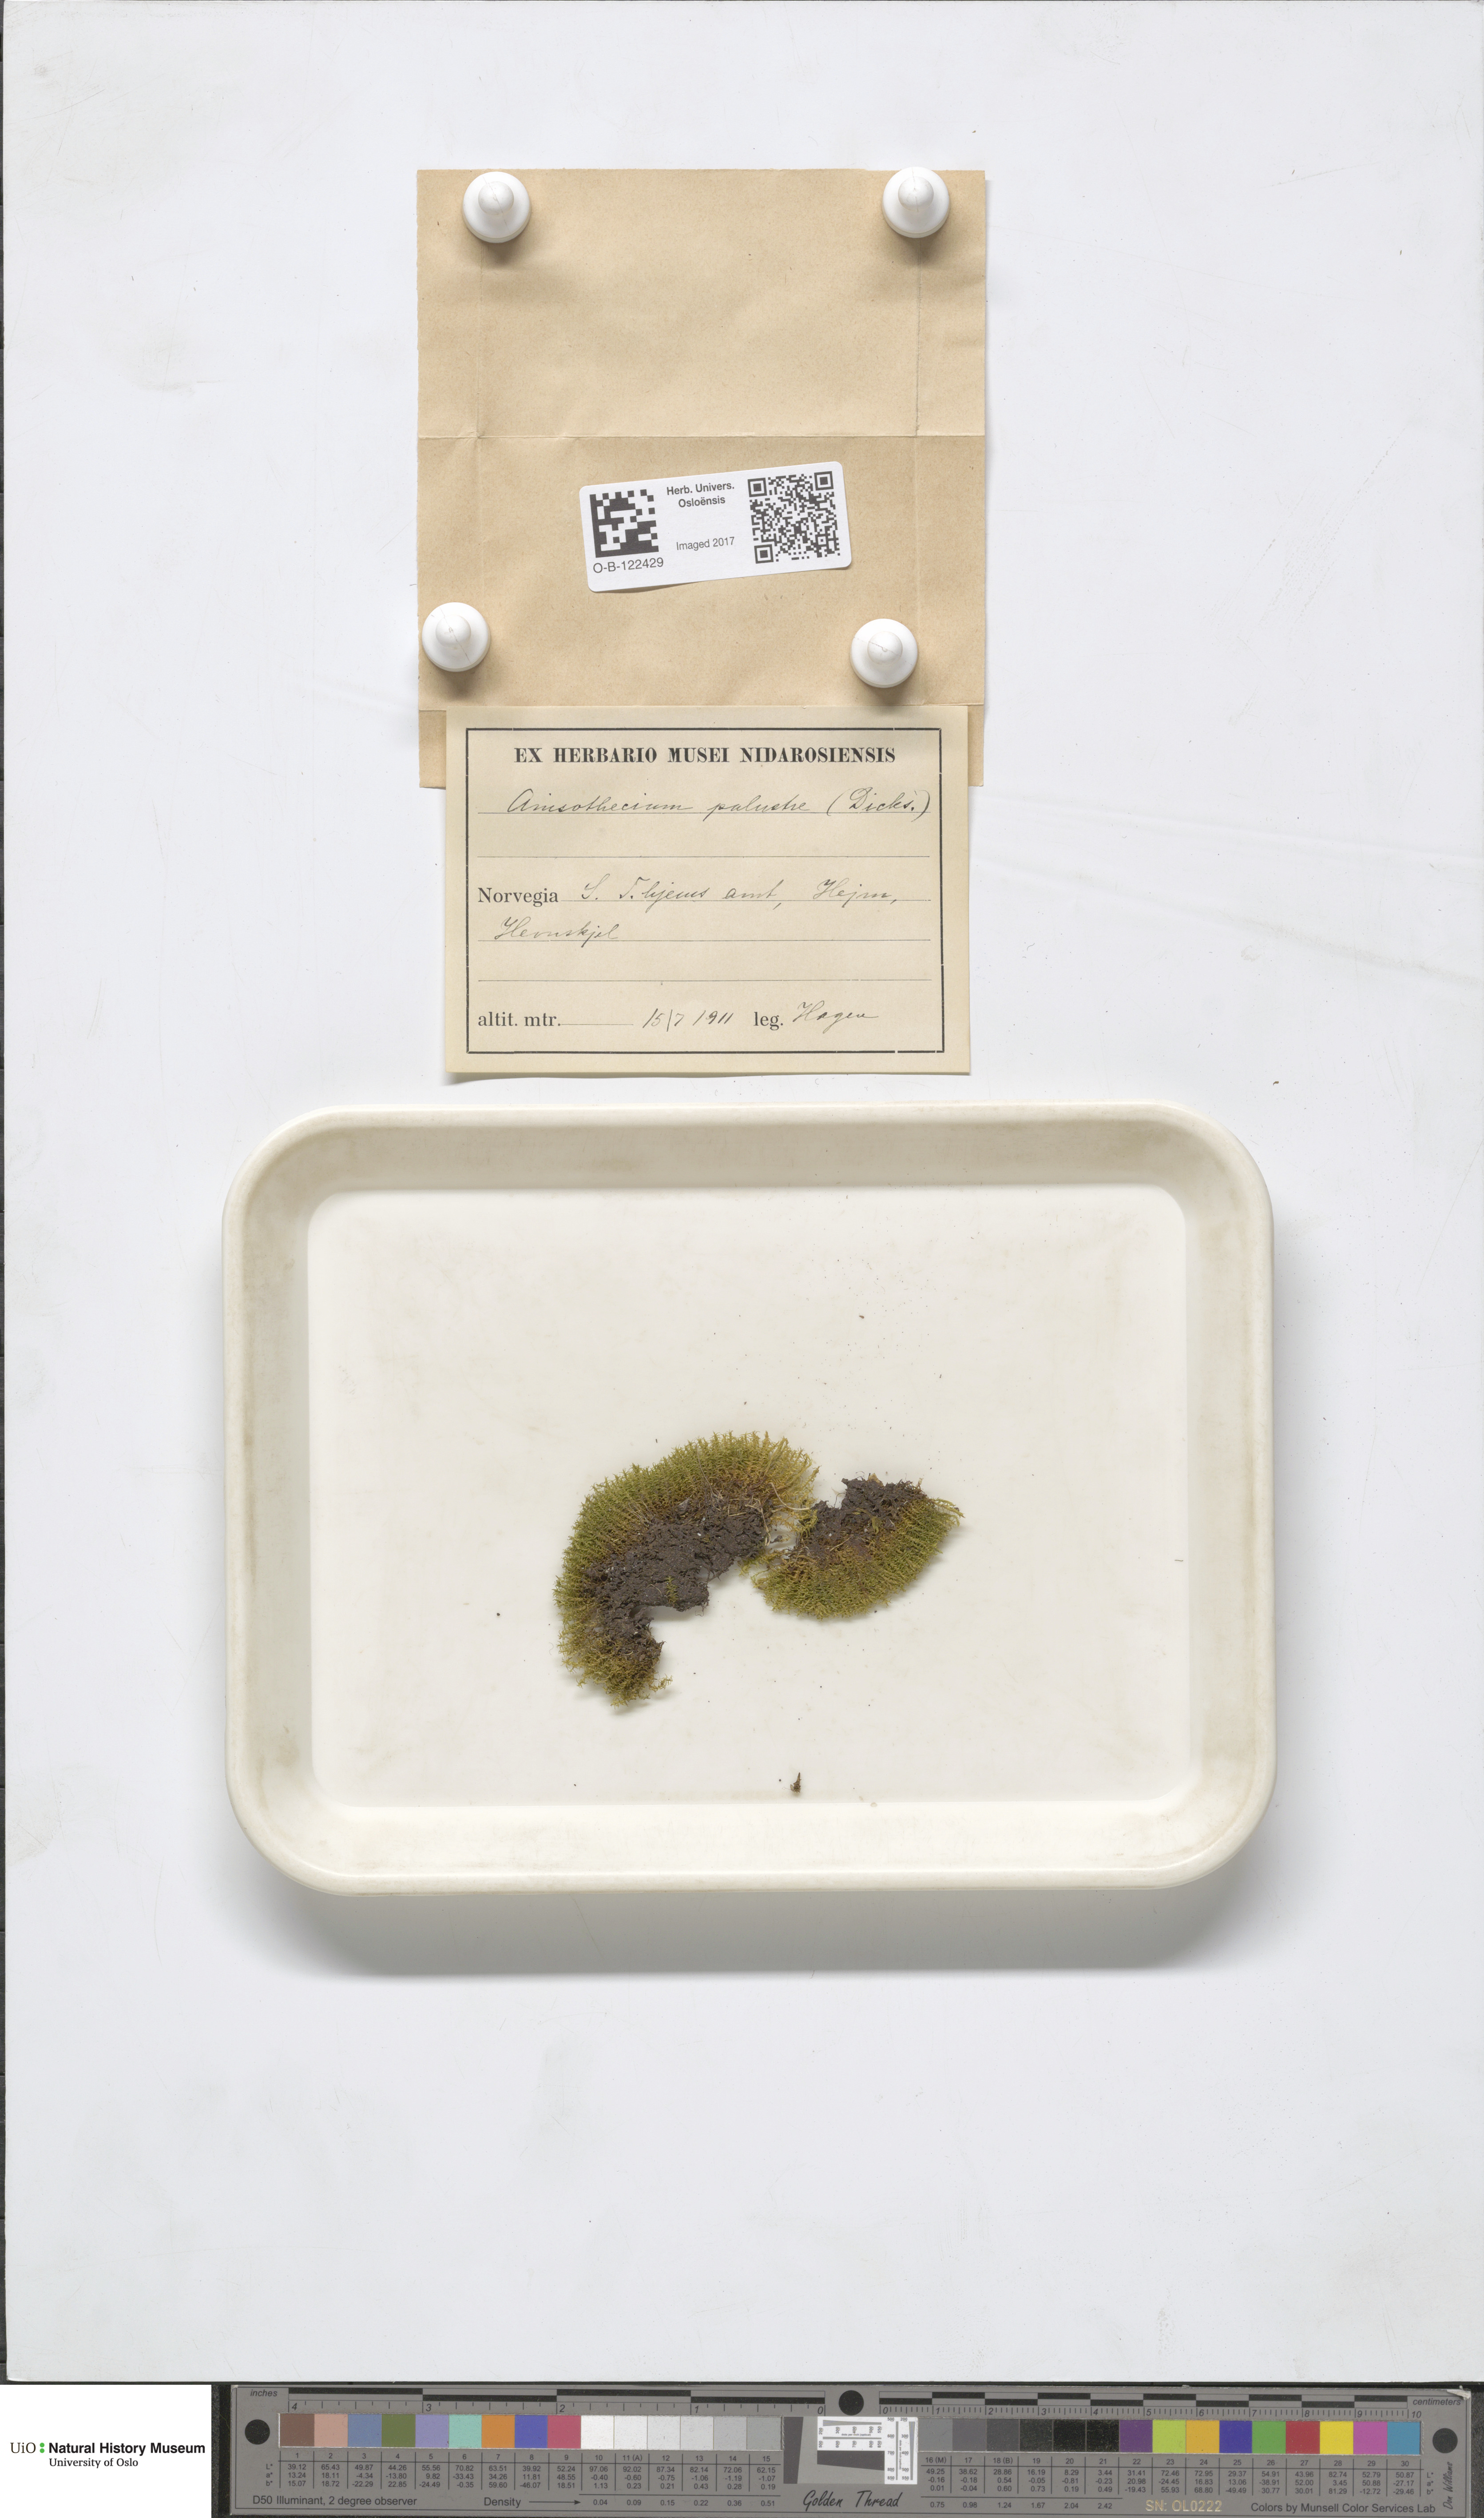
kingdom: Plantae
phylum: Bryophyta
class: Bryopsida
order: Dicranales
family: Aongstroemiaceae
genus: Diobelonella
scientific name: Diobelonella palustris
